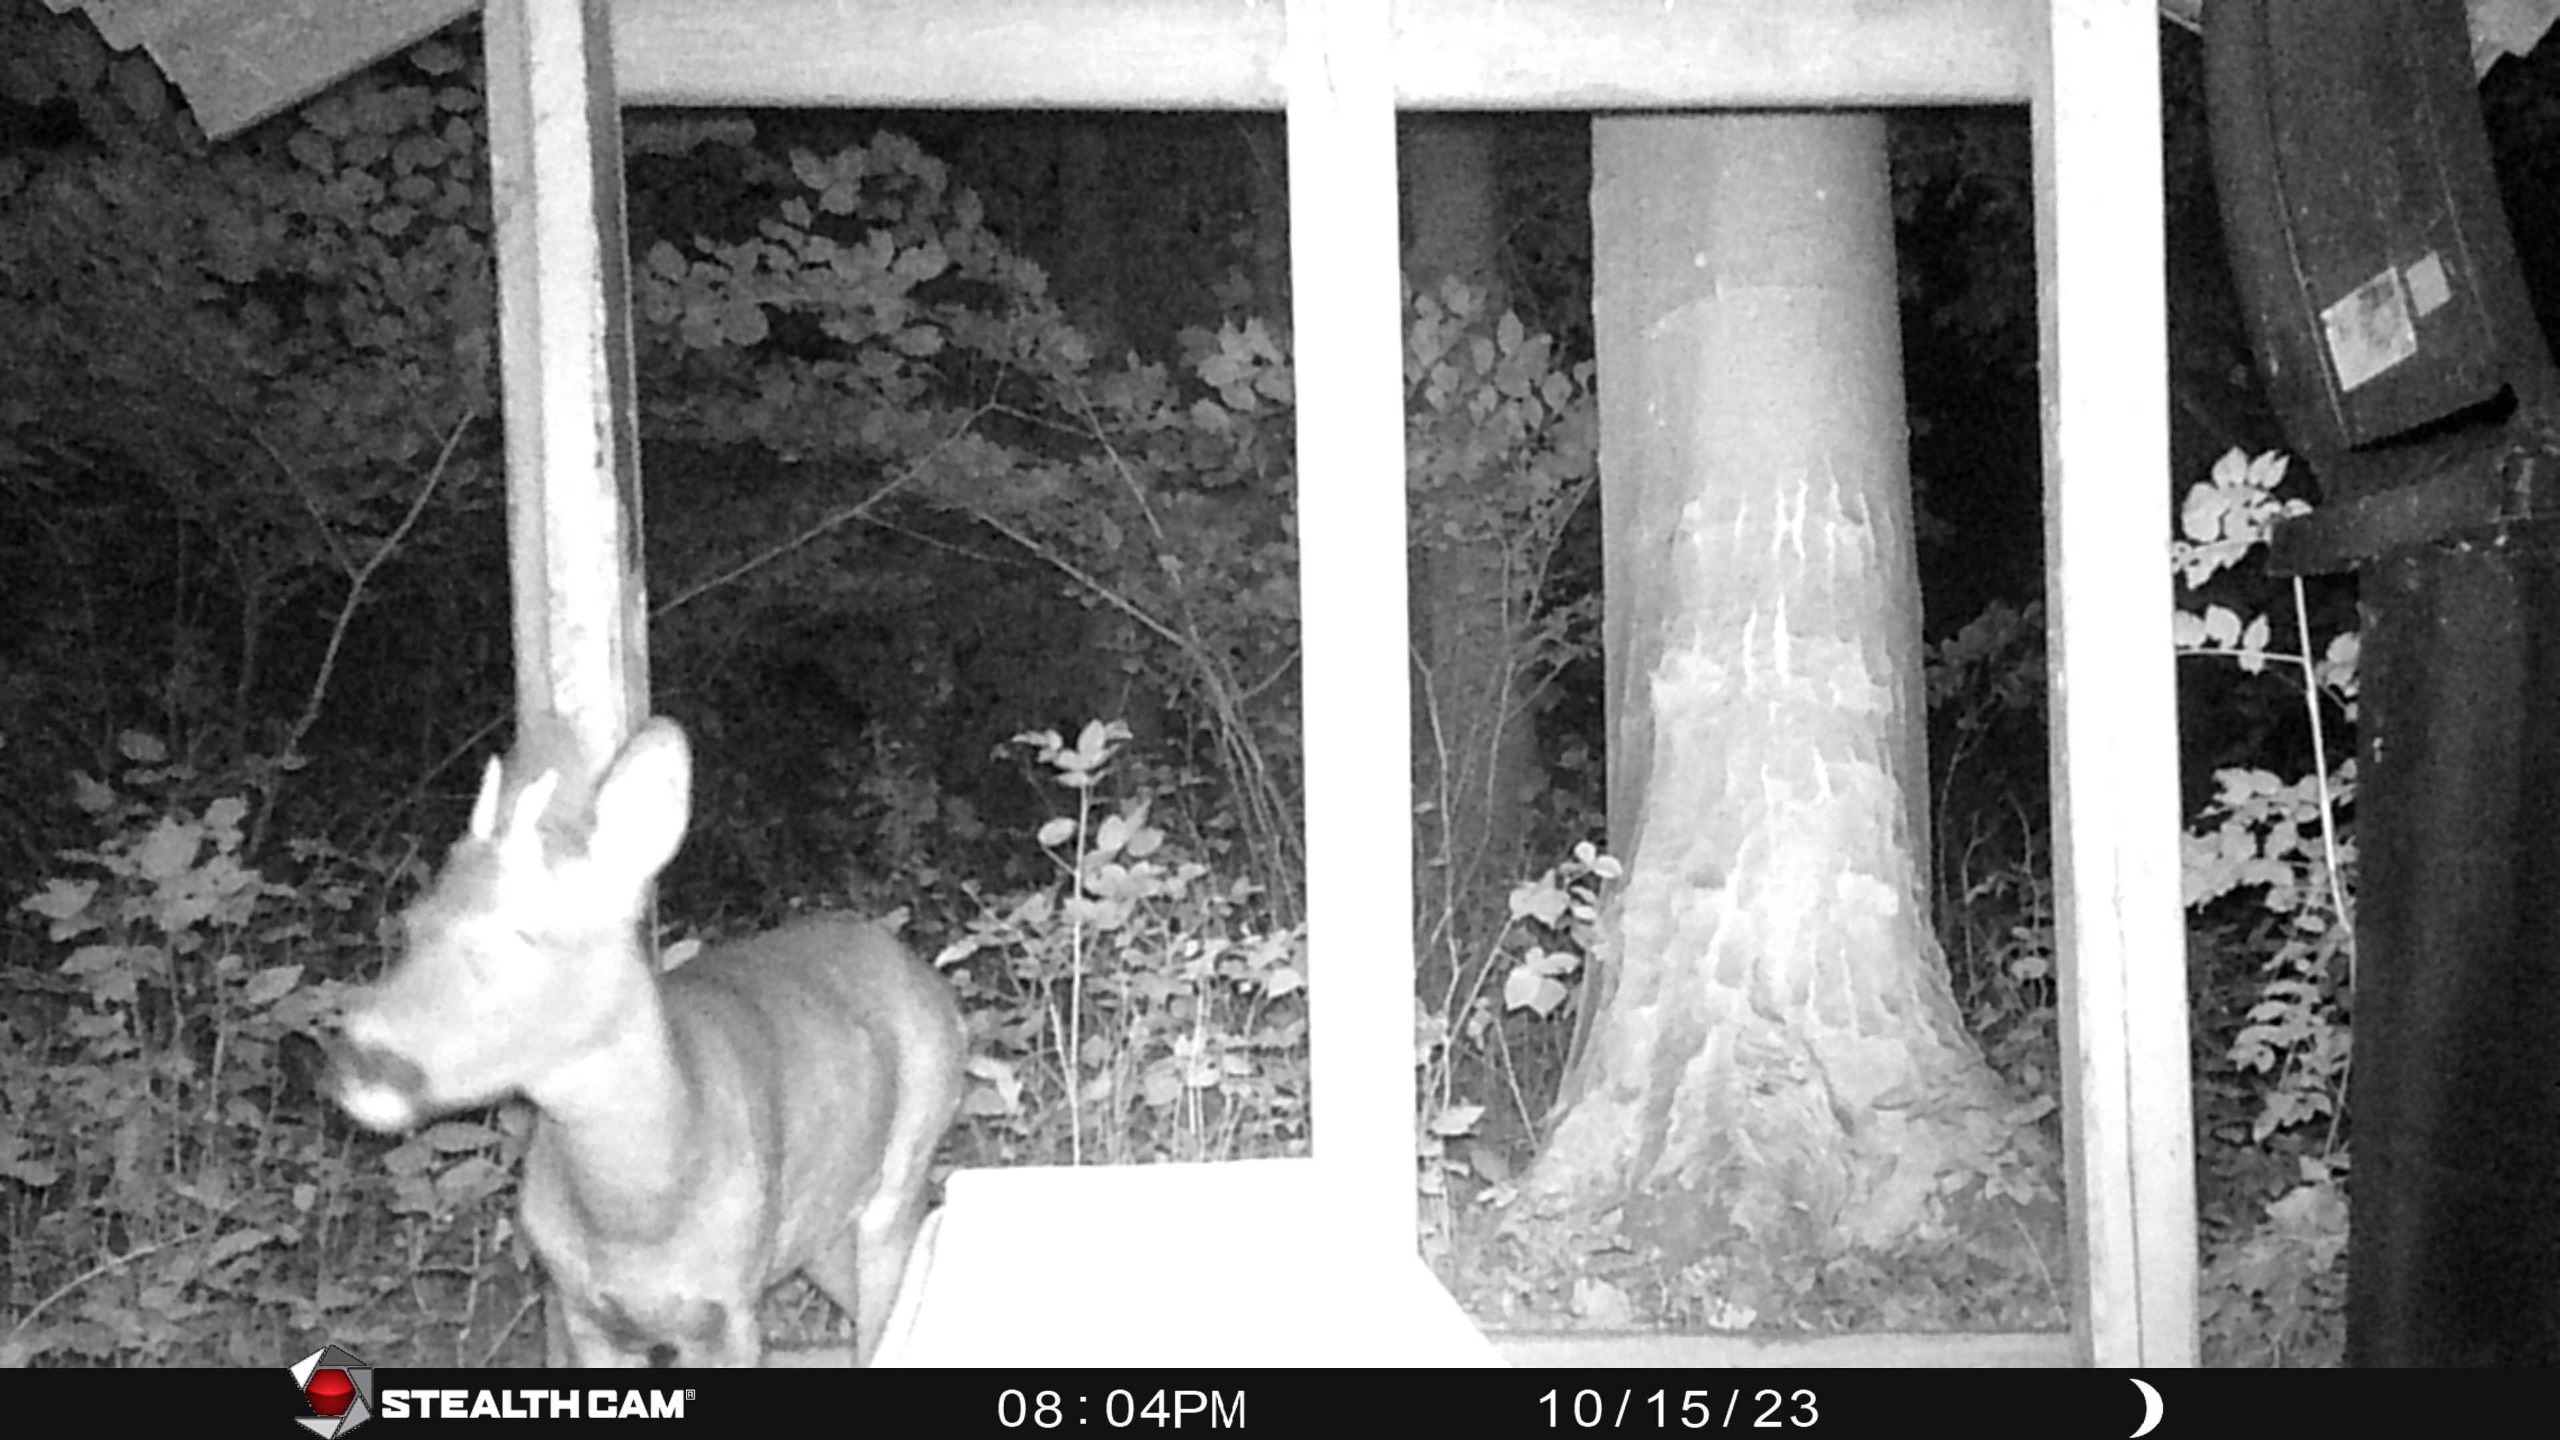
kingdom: Animalia
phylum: Chordata
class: Mammalia
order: Artiodactyla
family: Cervidae
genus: Capreolus
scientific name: Capreolus capreolus
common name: Rådyr
